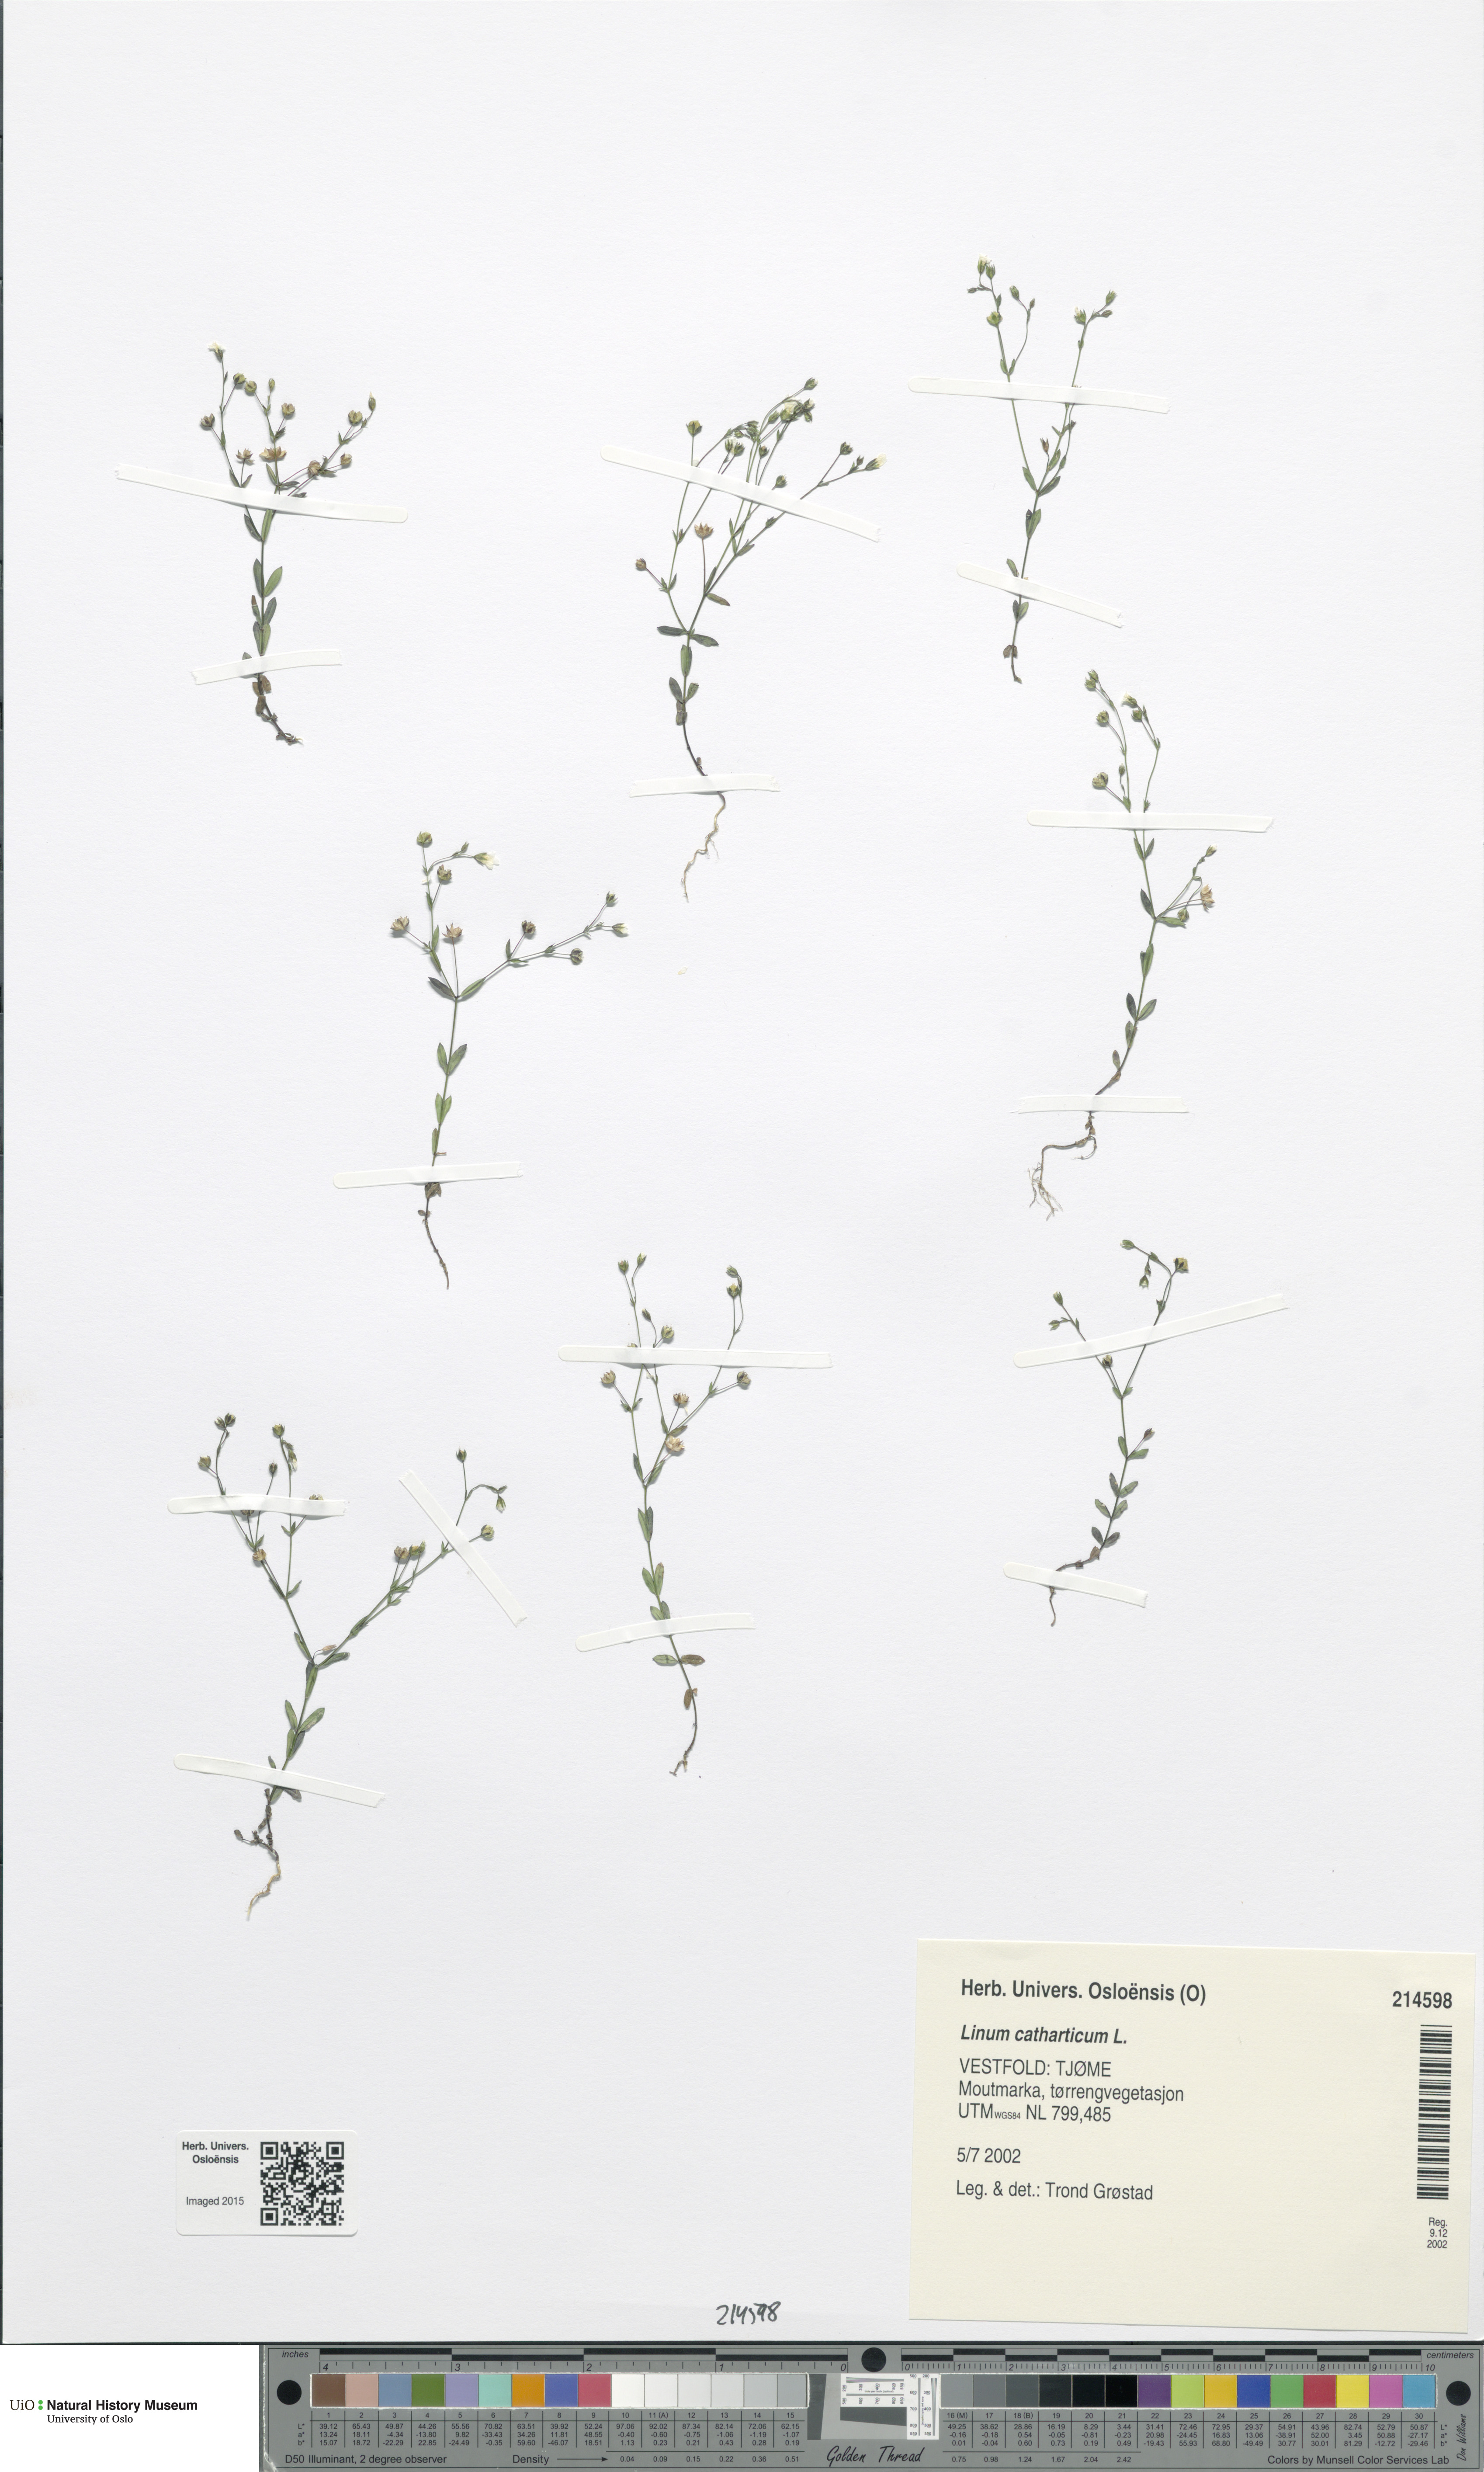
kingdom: Plantae
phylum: Tracheophyta
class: Magnoliopsida
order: Malpighiales
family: Linaceae
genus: Linum
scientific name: Linum catharticum
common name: Fairy flax
